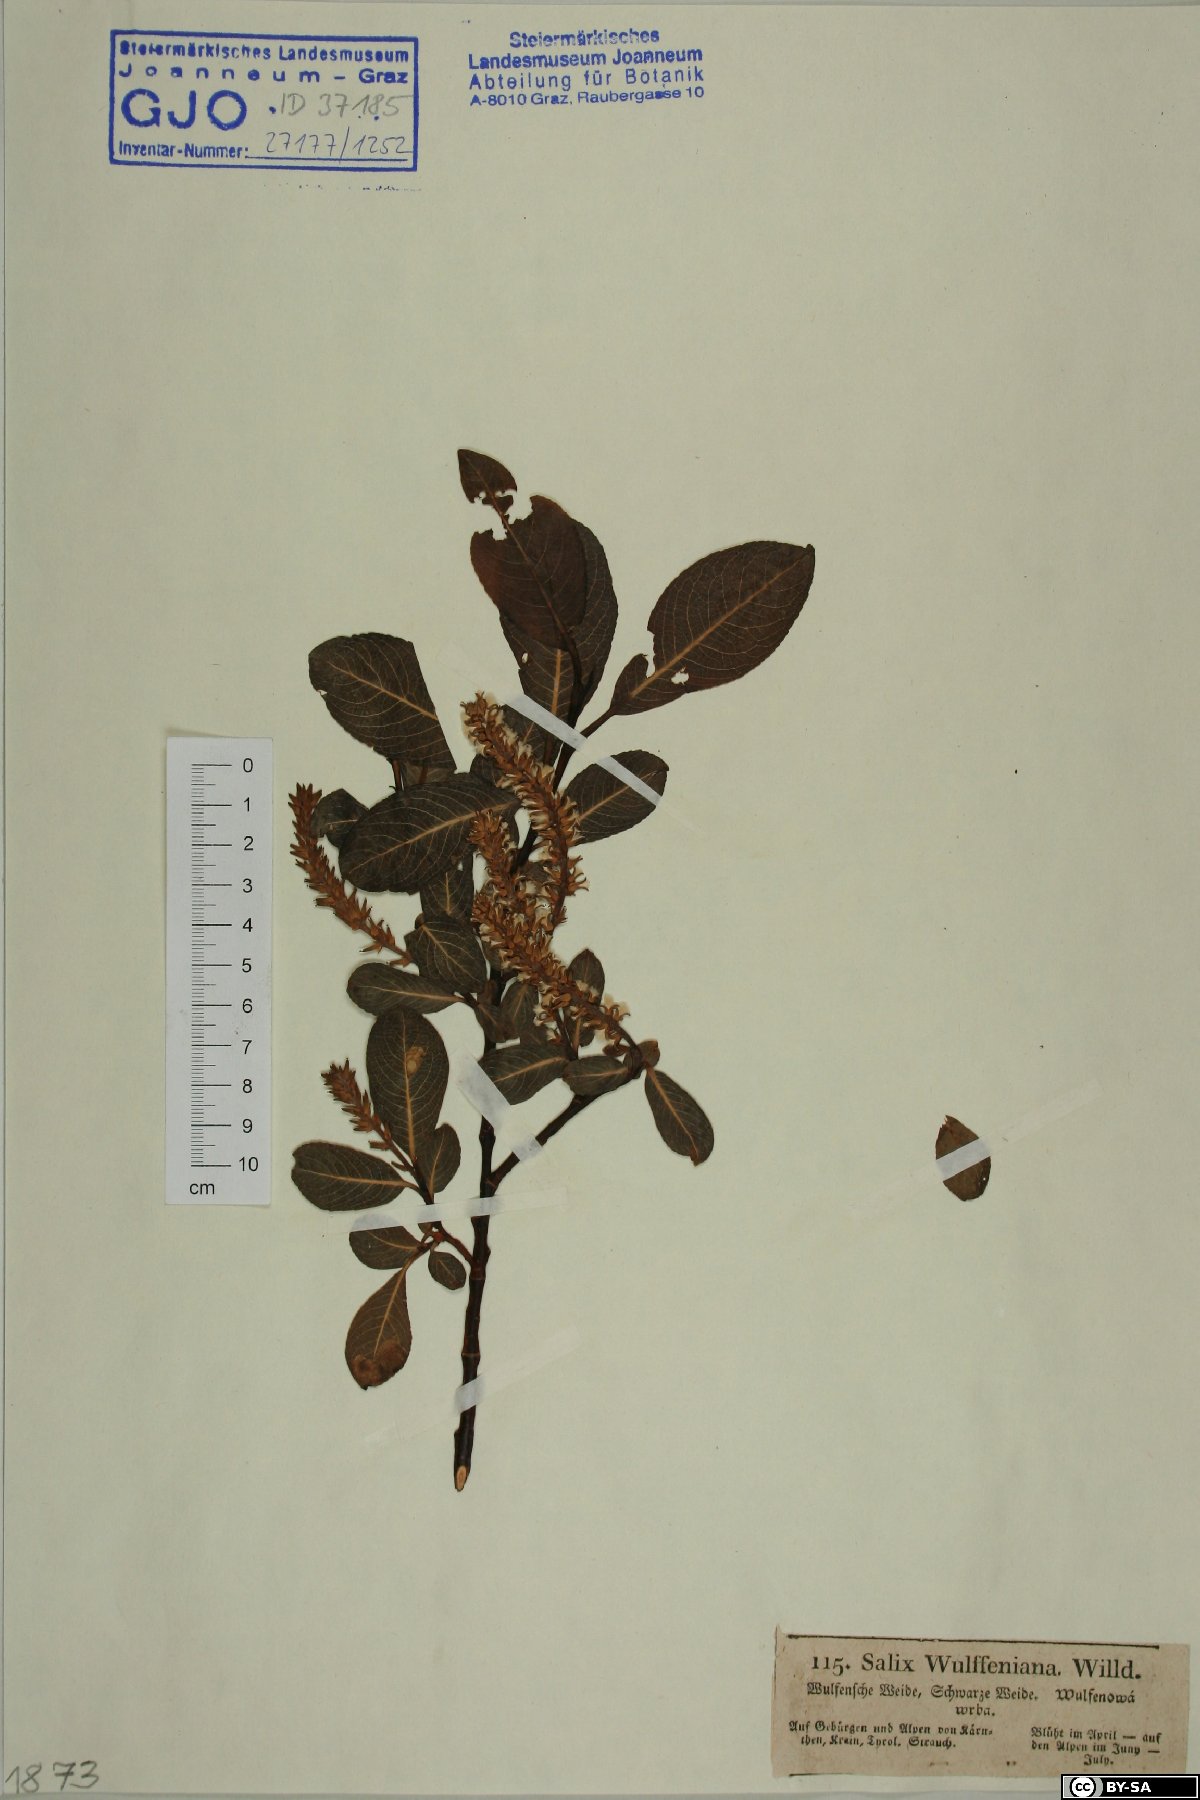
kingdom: Plantae
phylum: Tracheophyta
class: Magnoliopsida
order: Malpighiales
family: Salicaceae
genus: Salix
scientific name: Salix glabra
